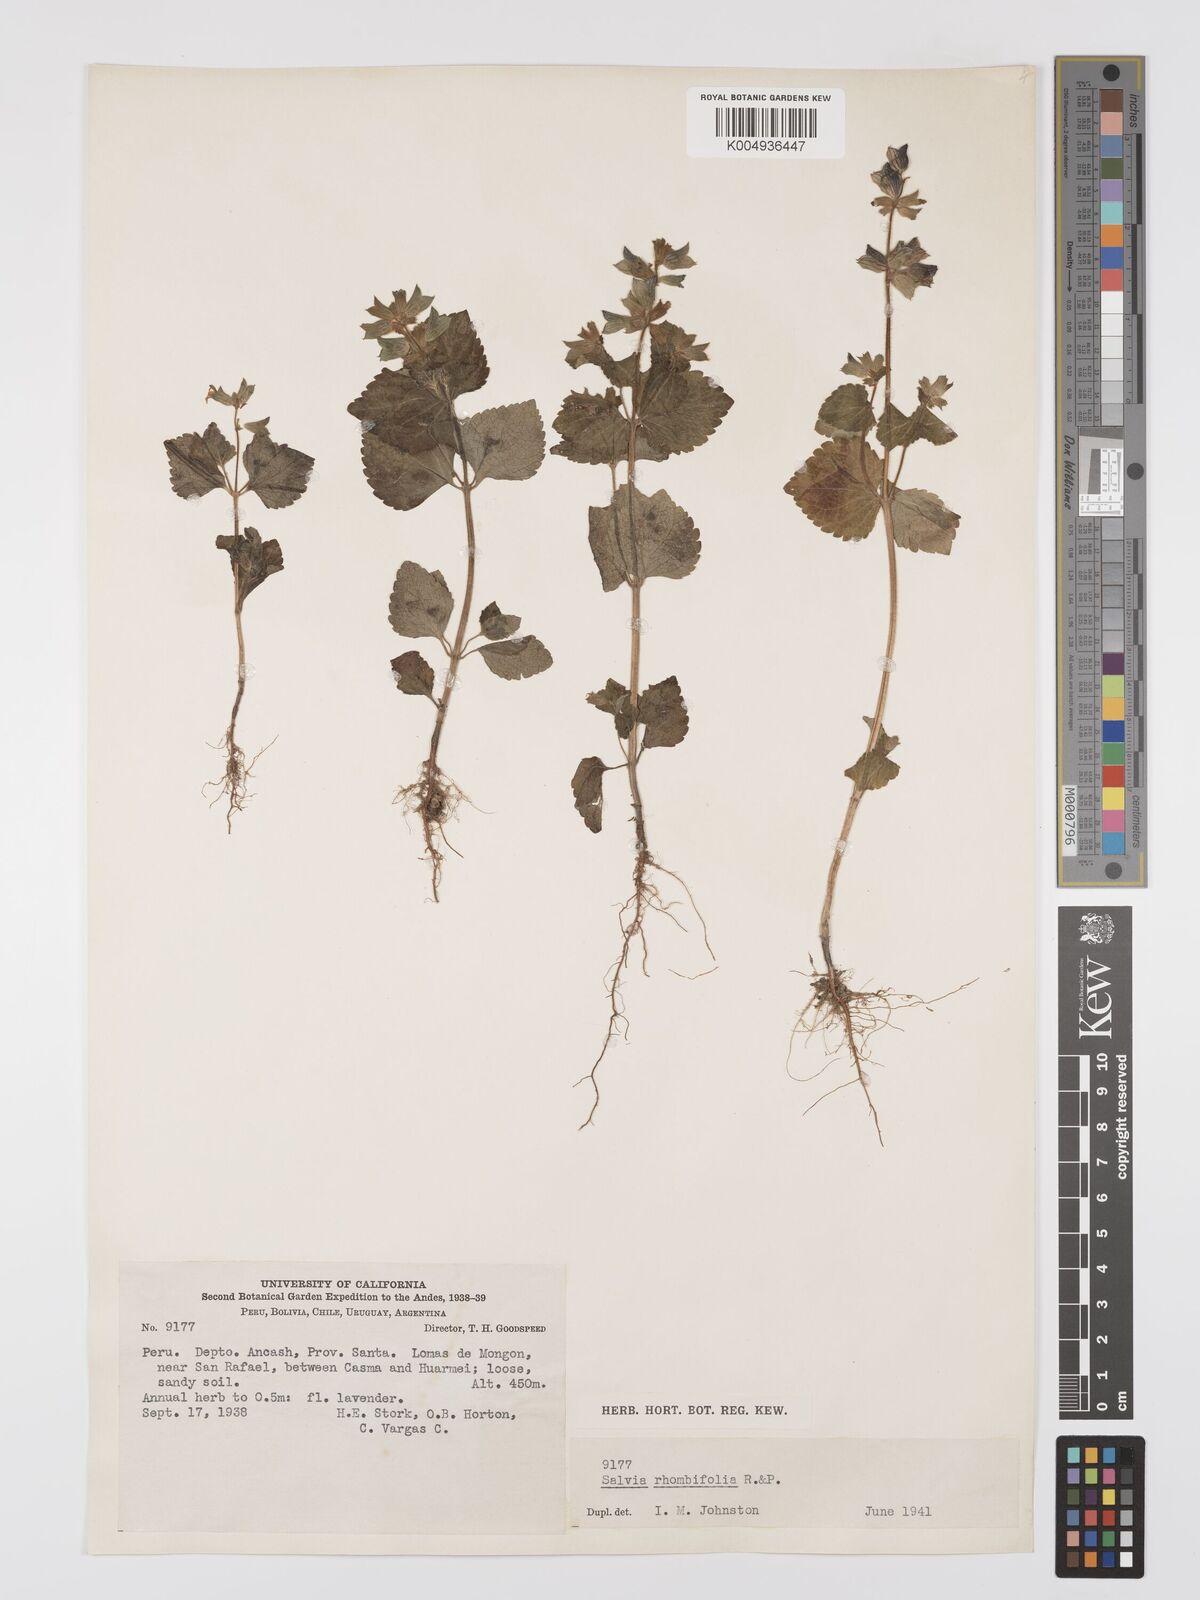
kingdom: Plantae
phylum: Tracheophyta
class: Magnoliopsida
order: Lamiales
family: Lamiaceae
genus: Salvia
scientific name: Salvia
